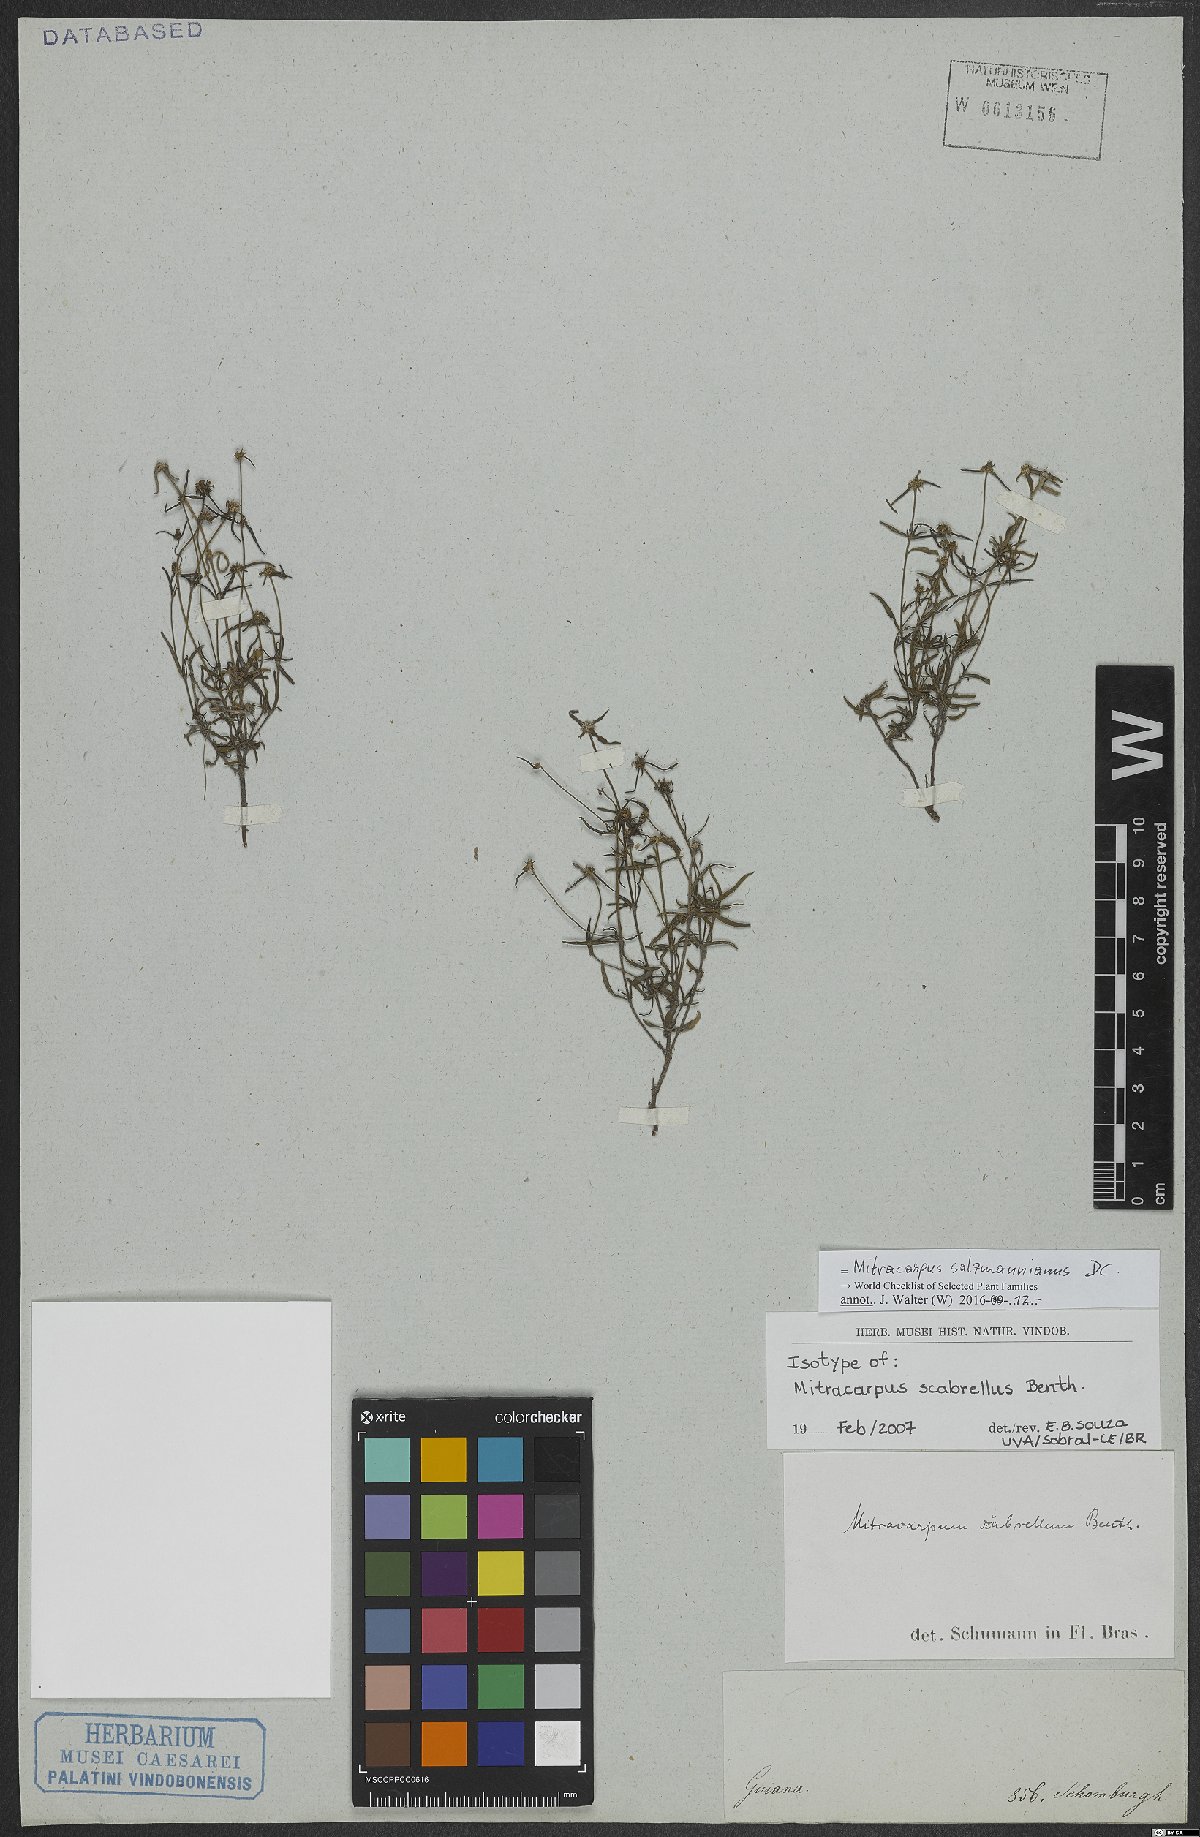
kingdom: Plantae
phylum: Tracheophyta
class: Magnoliopsida
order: Gentianales
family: Rubiaceae
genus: Mitracarpus
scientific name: Mitracarpus salzmannianus
